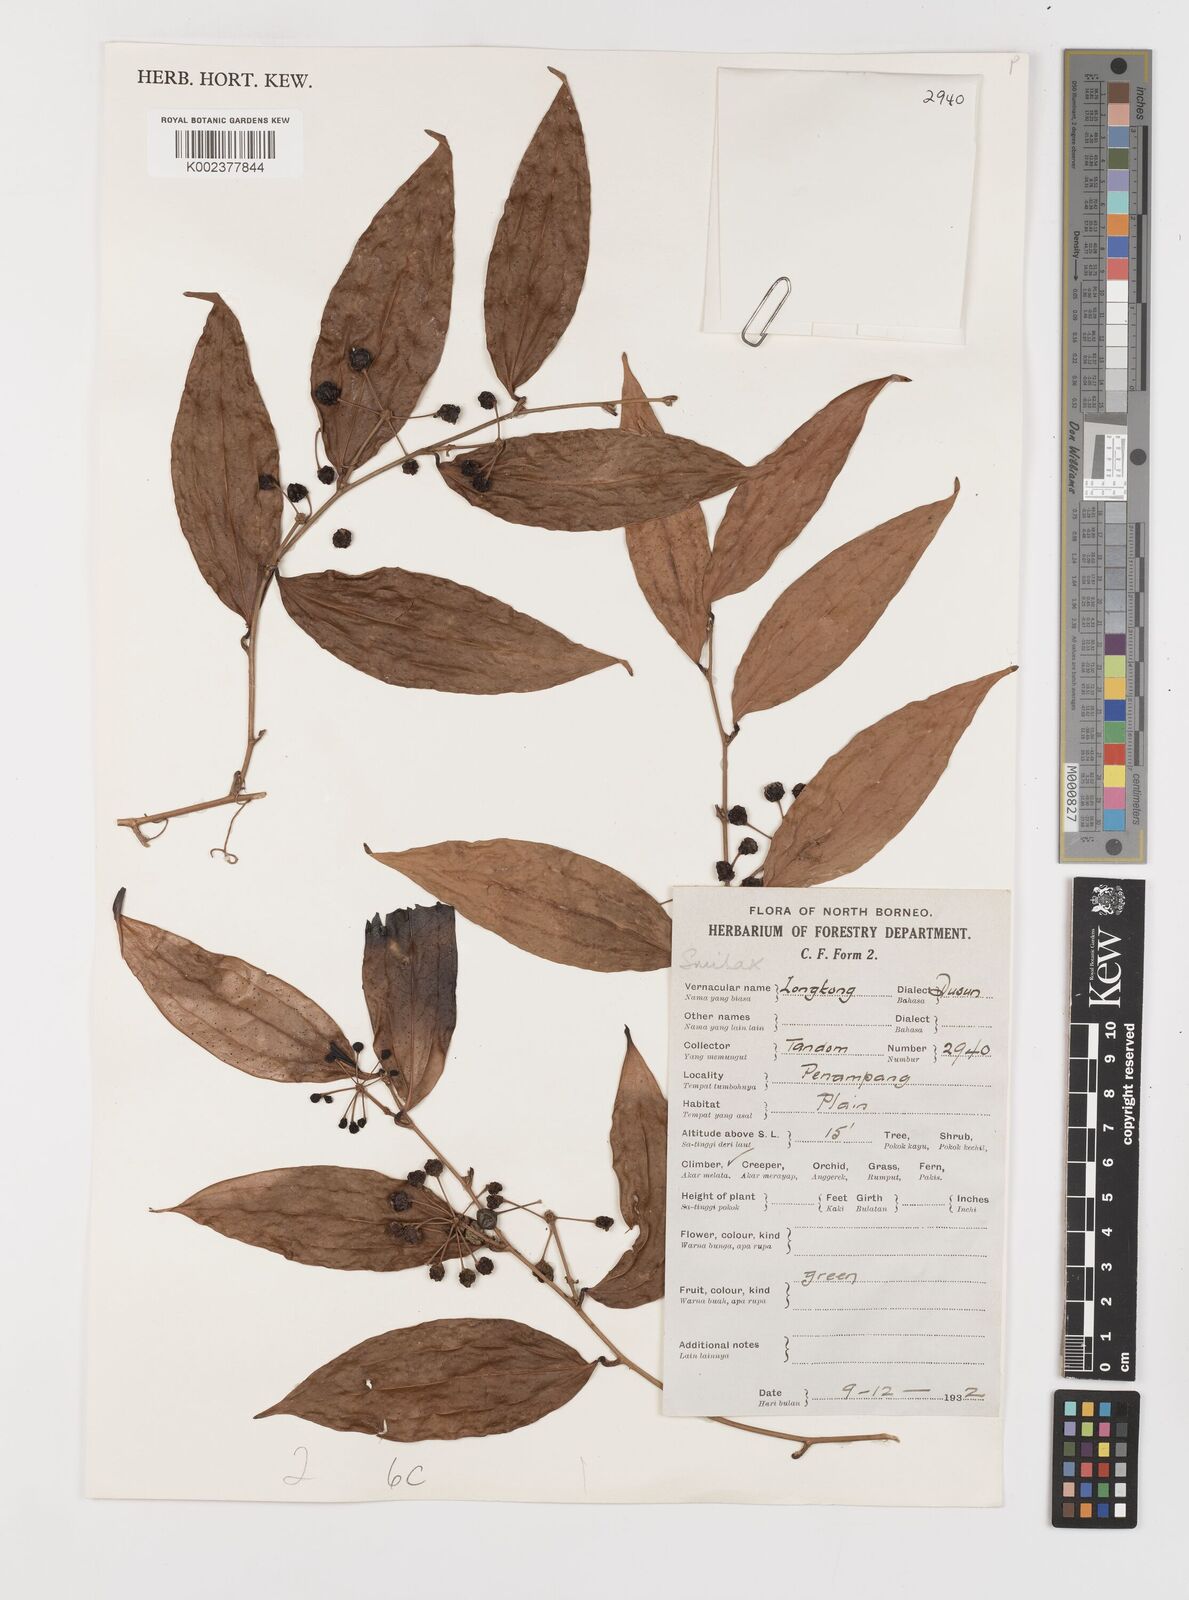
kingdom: Plantae
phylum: Tracheophyta
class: Liliopsida
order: Liliales
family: Smilacaceae
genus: Smilax
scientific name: Smilax
